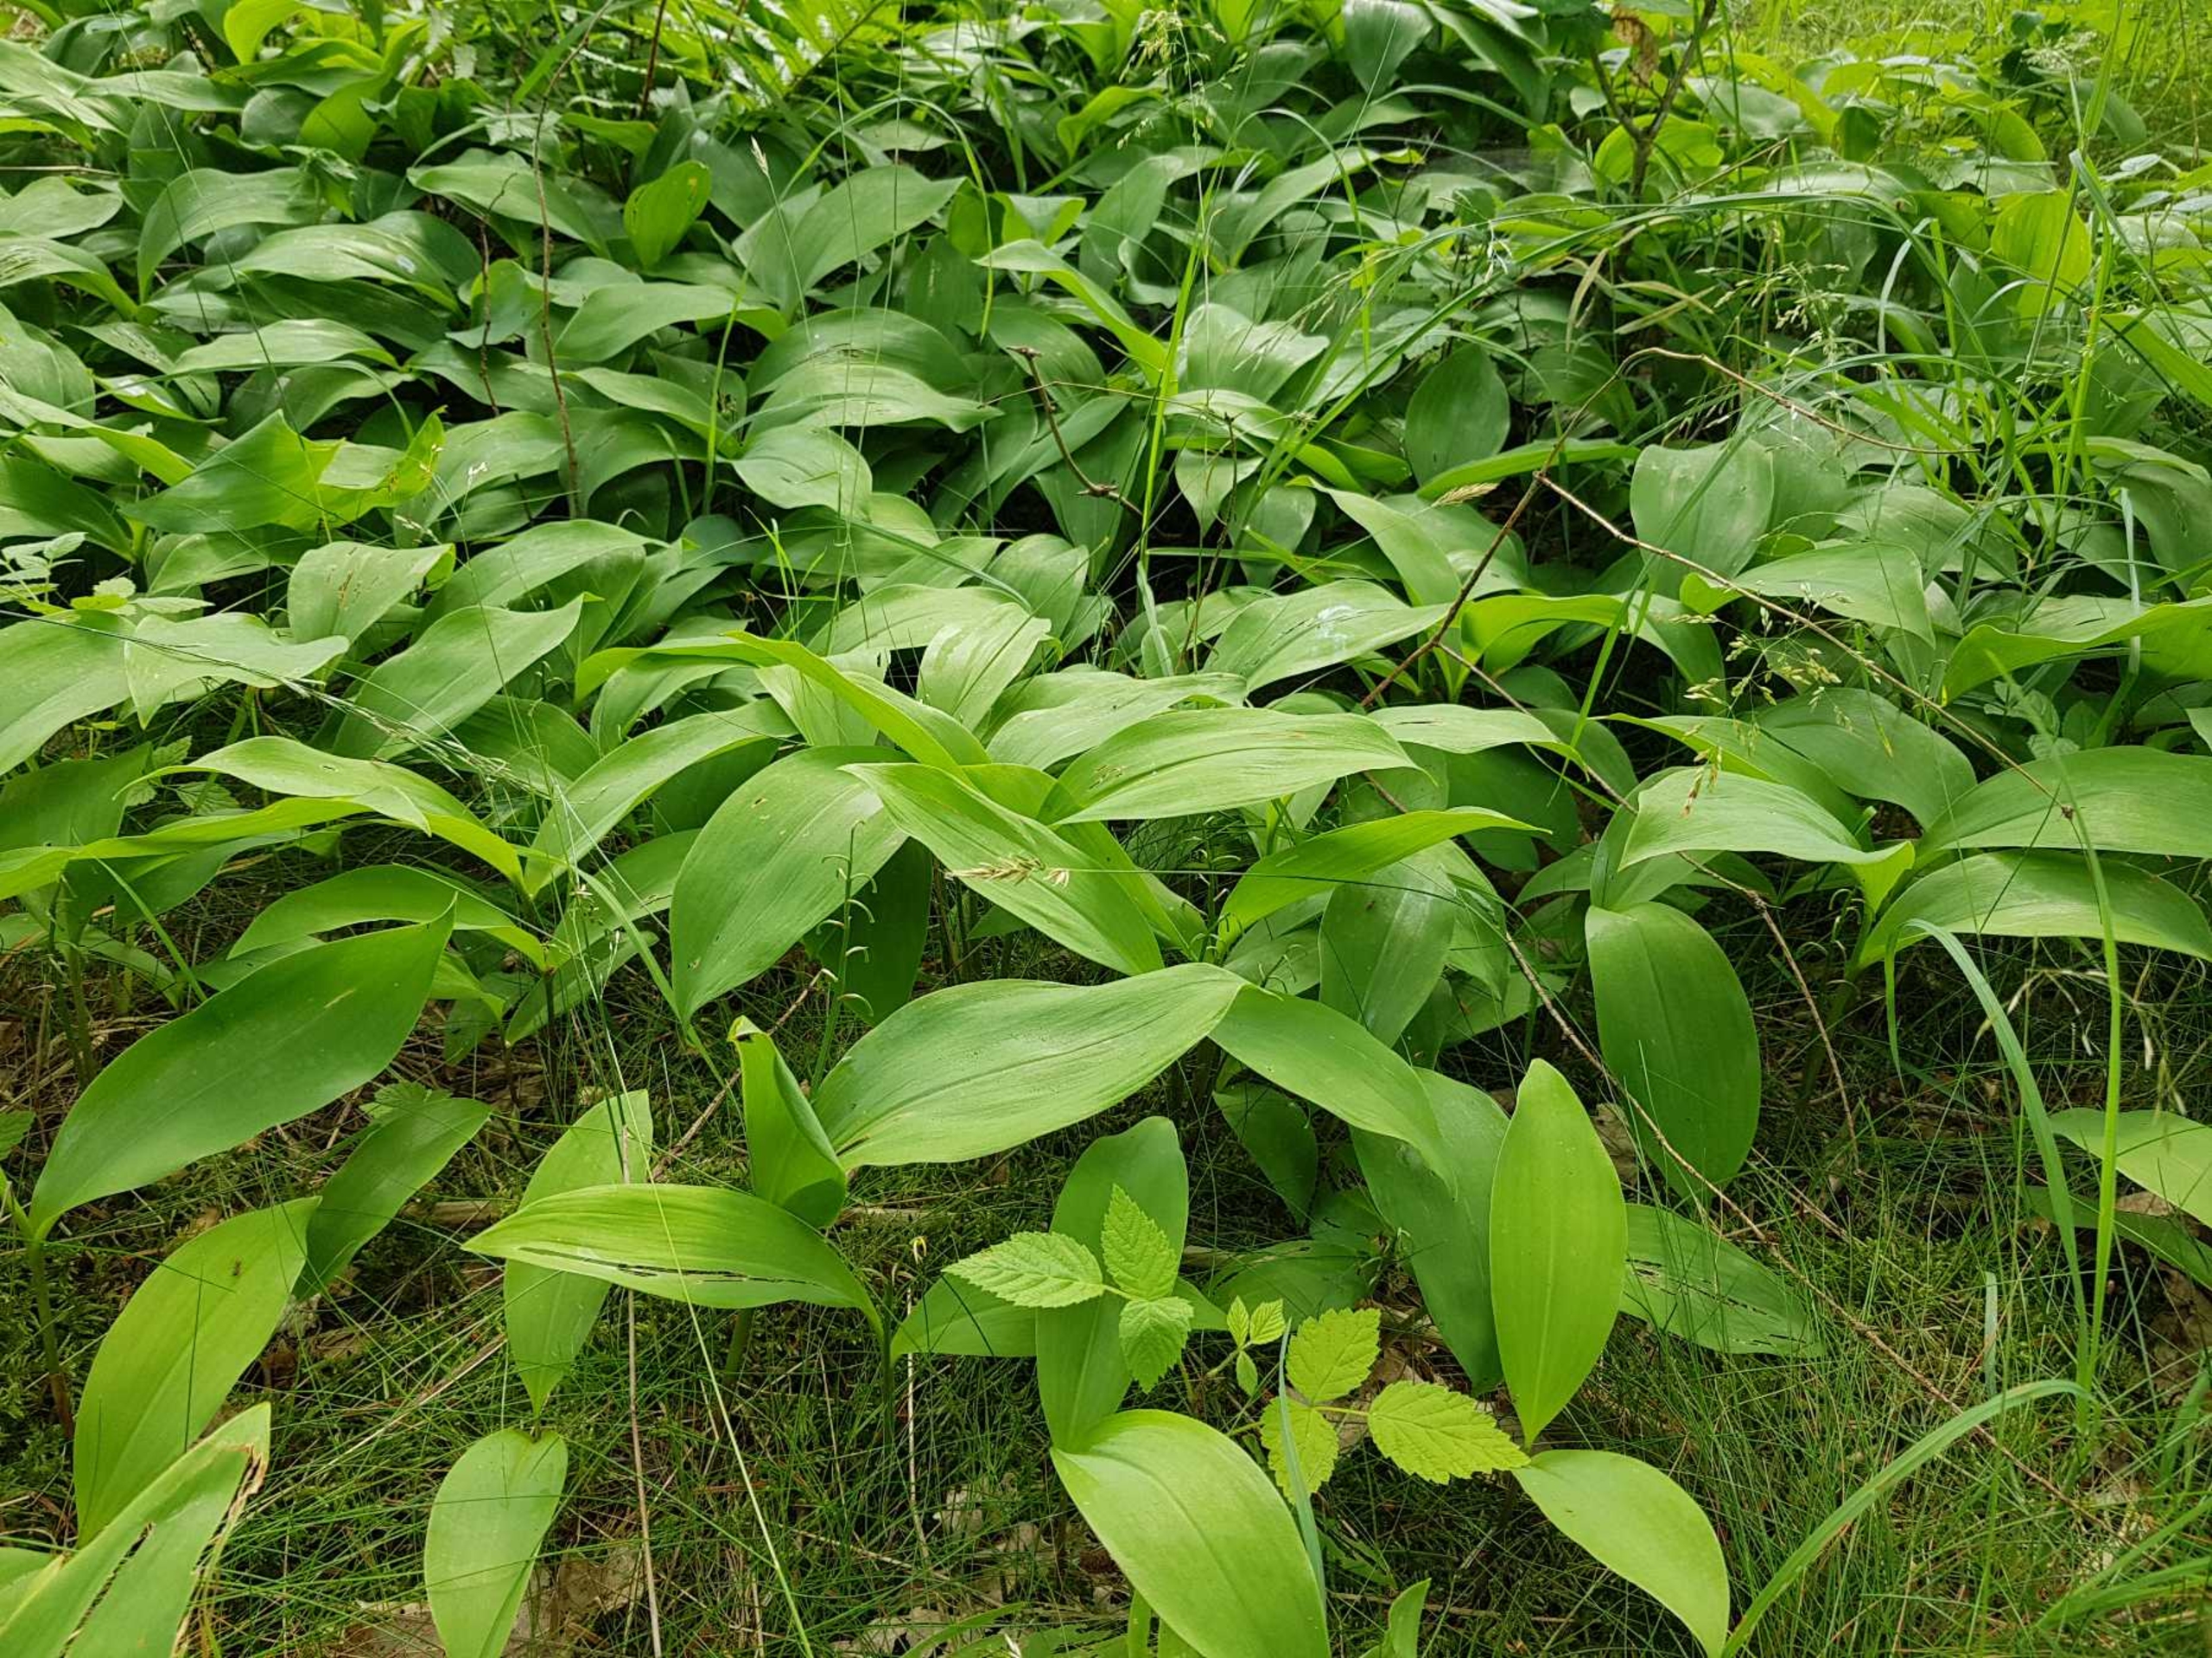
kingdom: Plantae
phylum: Tracheophyta
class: Liliopsida
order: Asparagales
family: Asparagaceae
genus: Convallaria
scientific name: Convallaria majalis
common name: Liljekonval
